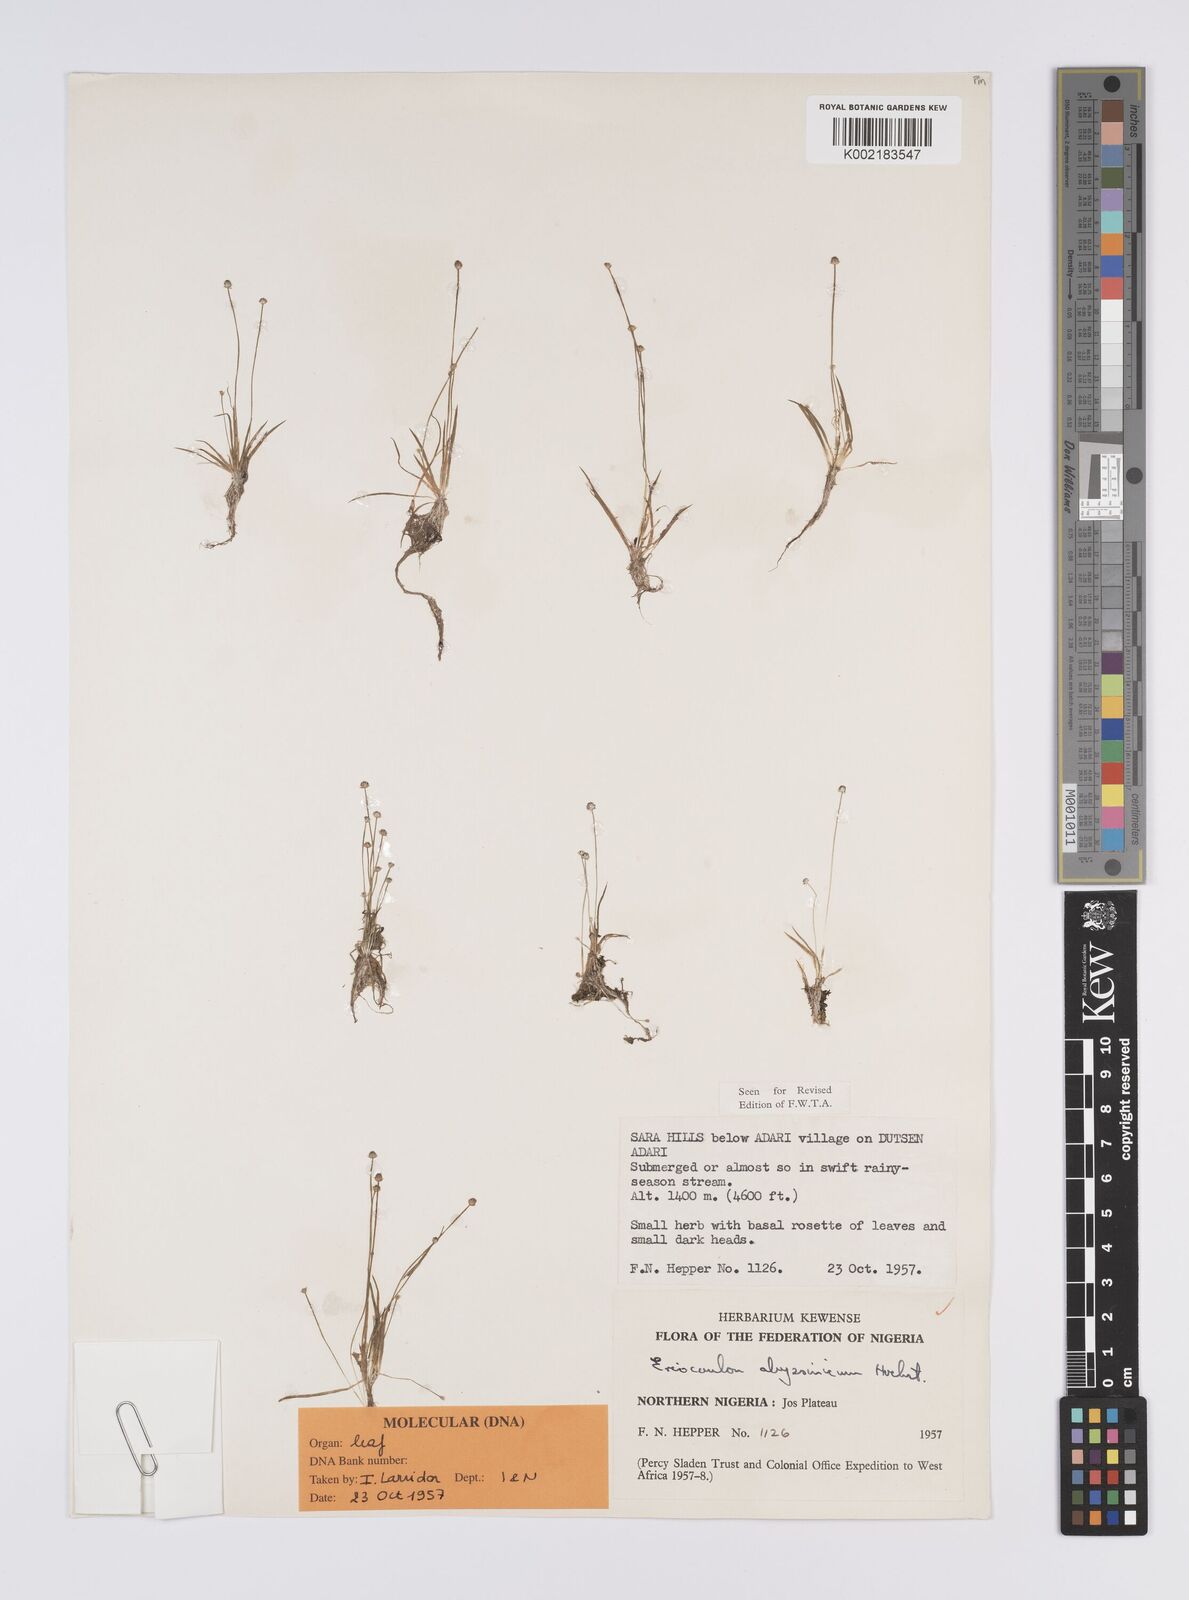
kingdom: Plantae
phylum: Tracheophyta
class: Liliopsida
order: Poales
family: Eriocaulaceae
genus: Eriocaulon
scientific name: Eriocaulon abyssinicum
